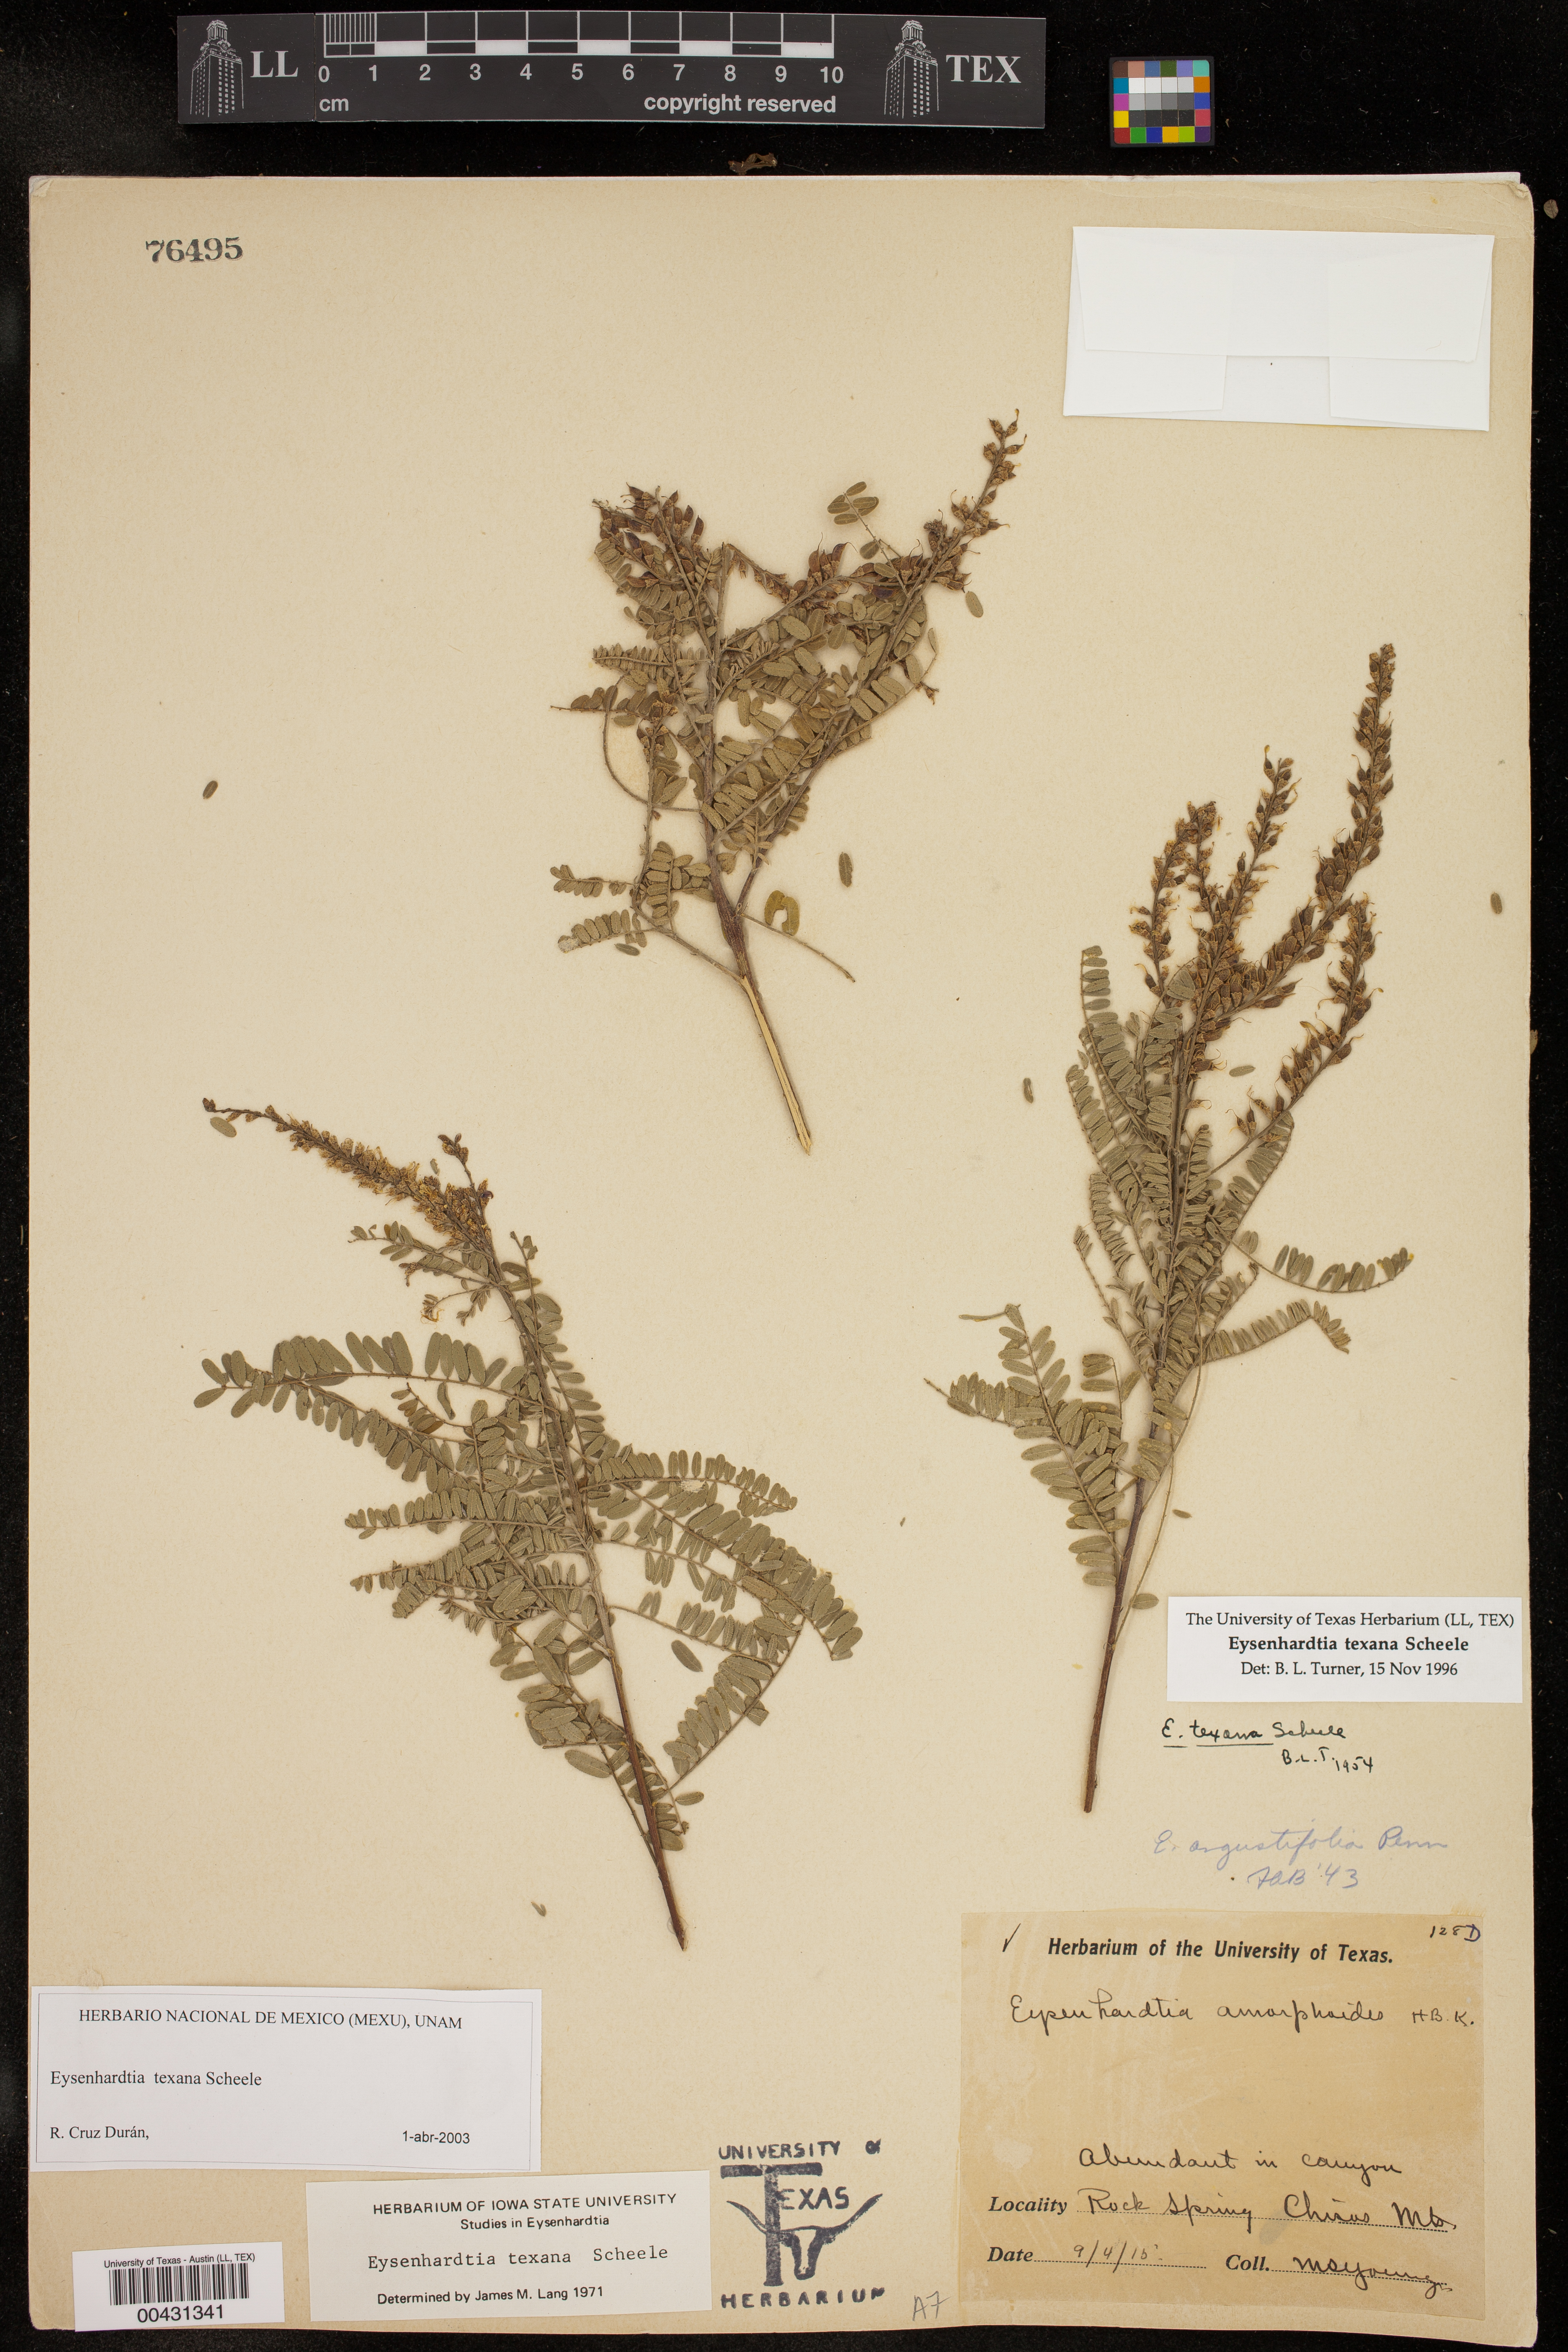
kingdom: Plantae
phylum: Tracheophyta
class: Magnoliopsida
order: Fabales
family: Fabaceae
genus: Eysenhardtia
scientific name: Eysenhardtia texana
